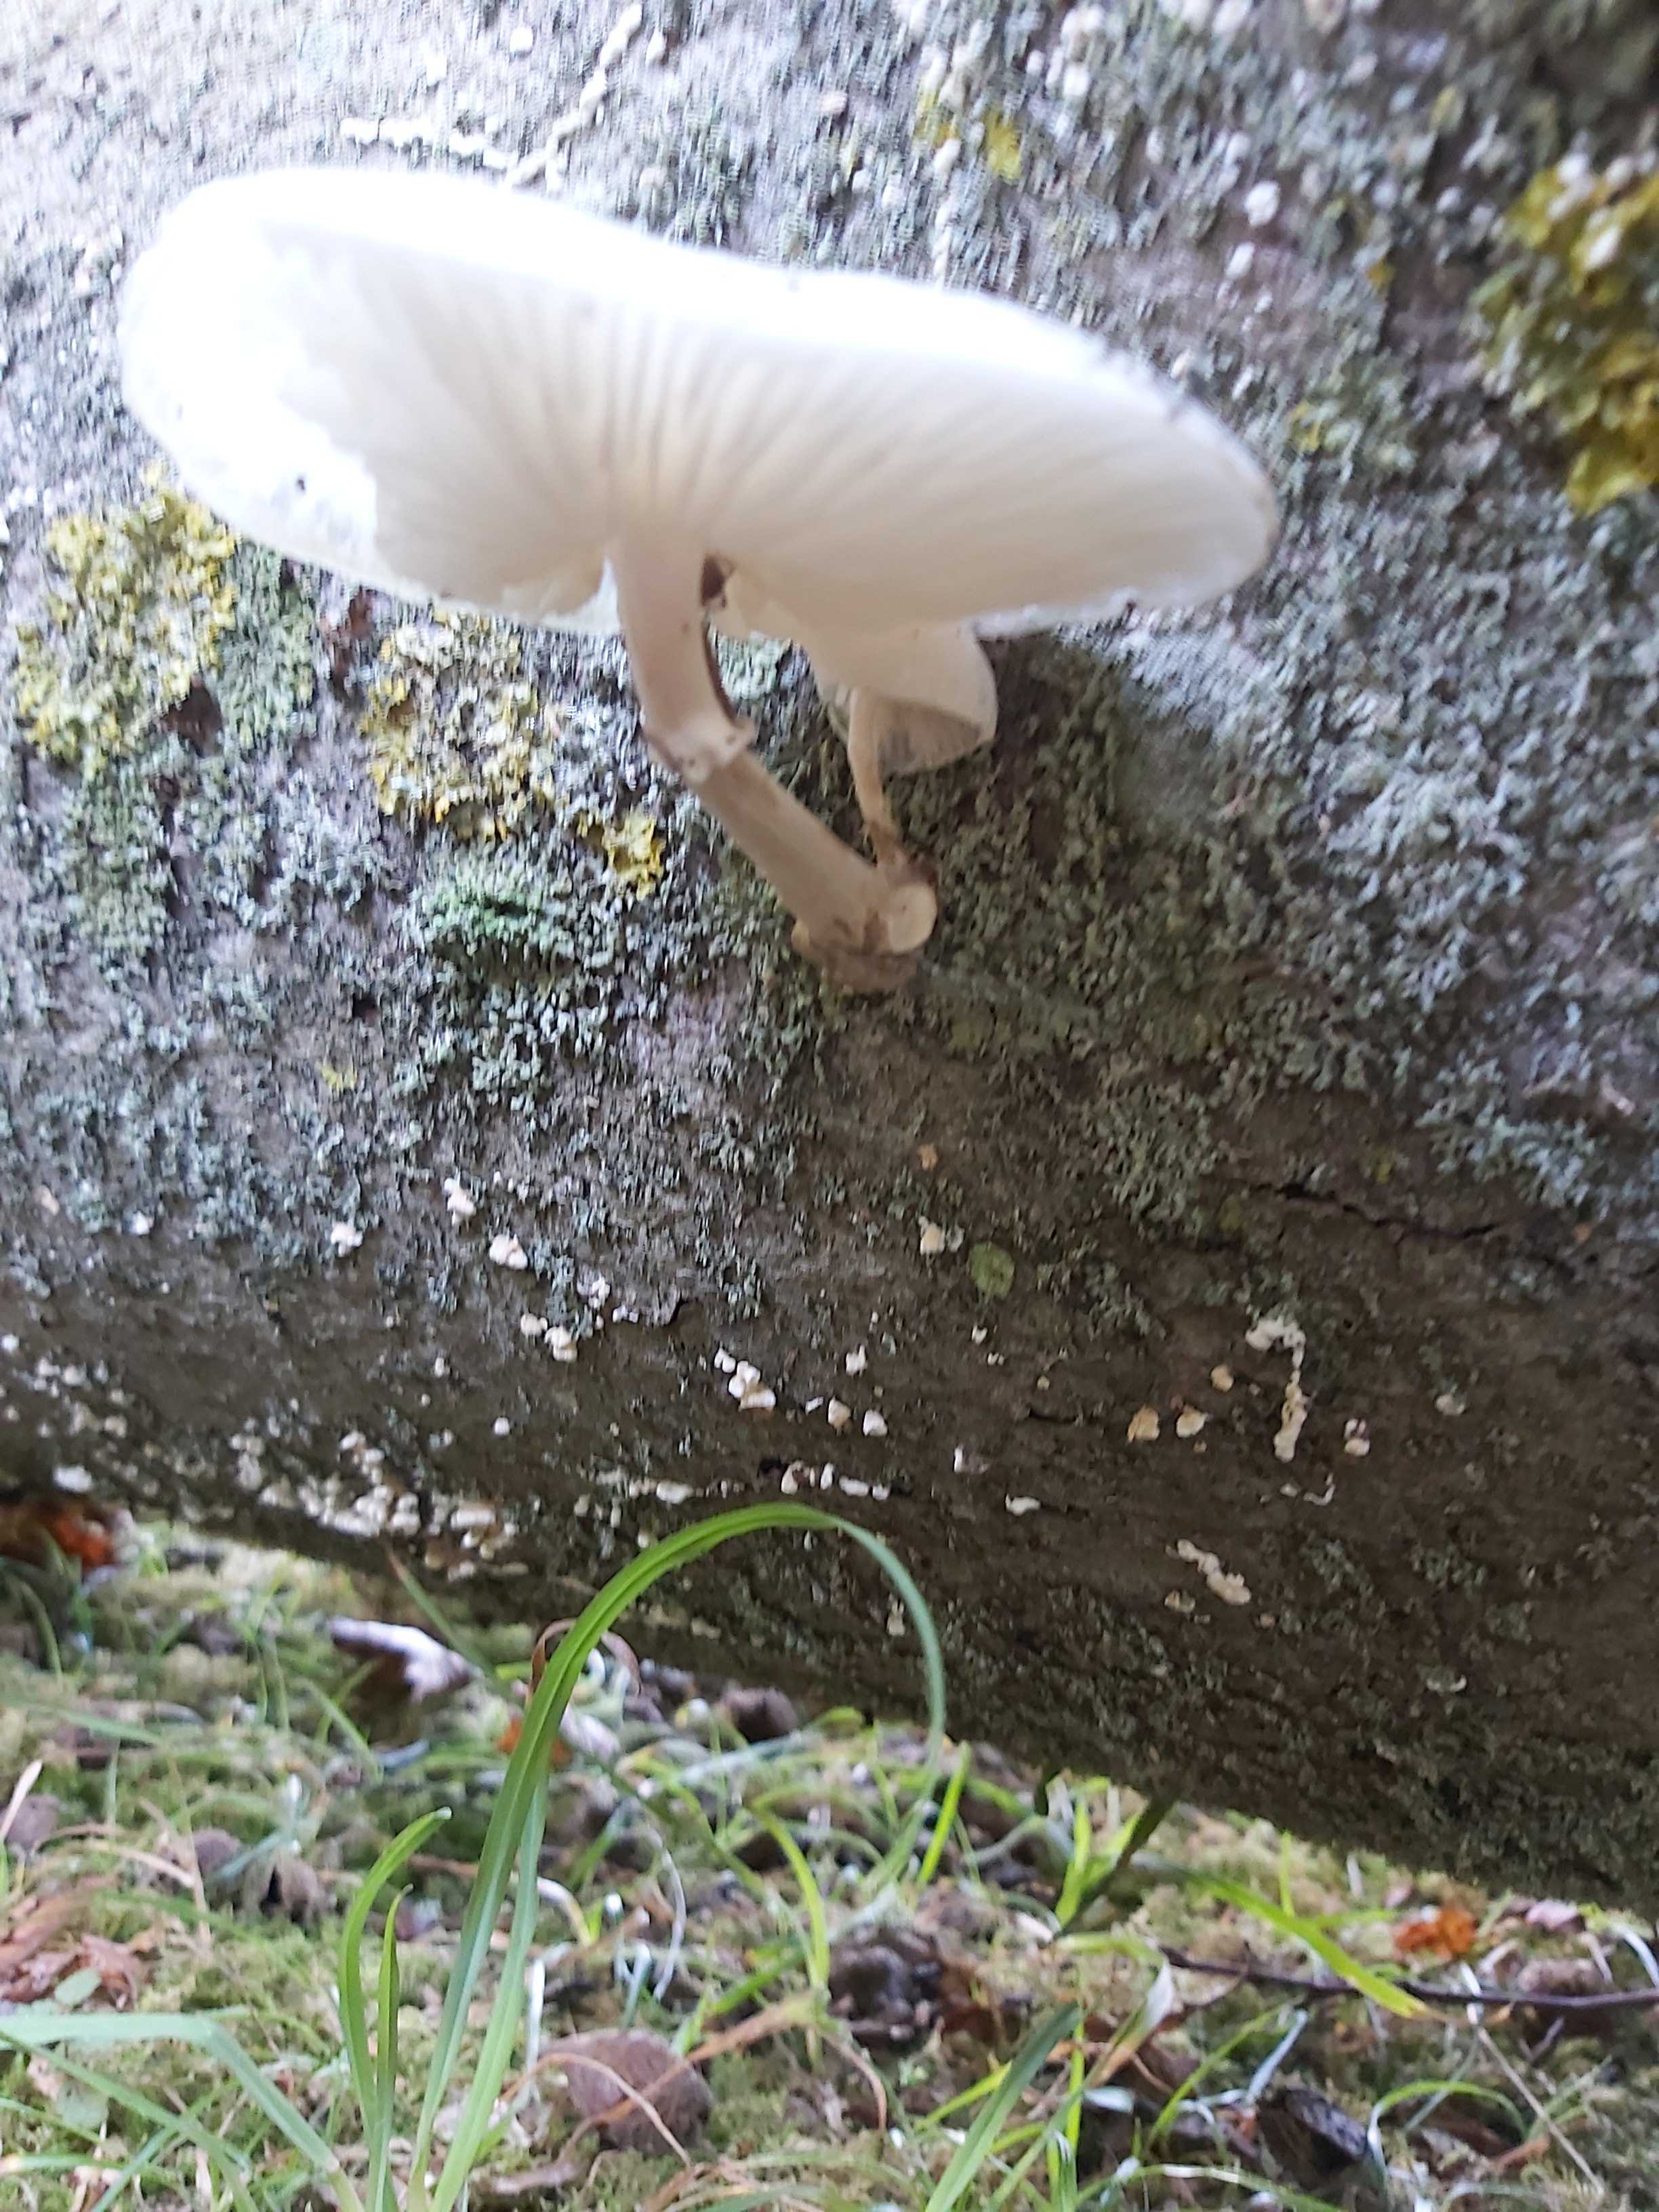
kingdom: Fungi
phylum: Basidiomycota
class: Agaricomycetes
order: Agaricales
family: Physalacriaceae
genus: Mucidula
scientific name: Mucidula mucida
